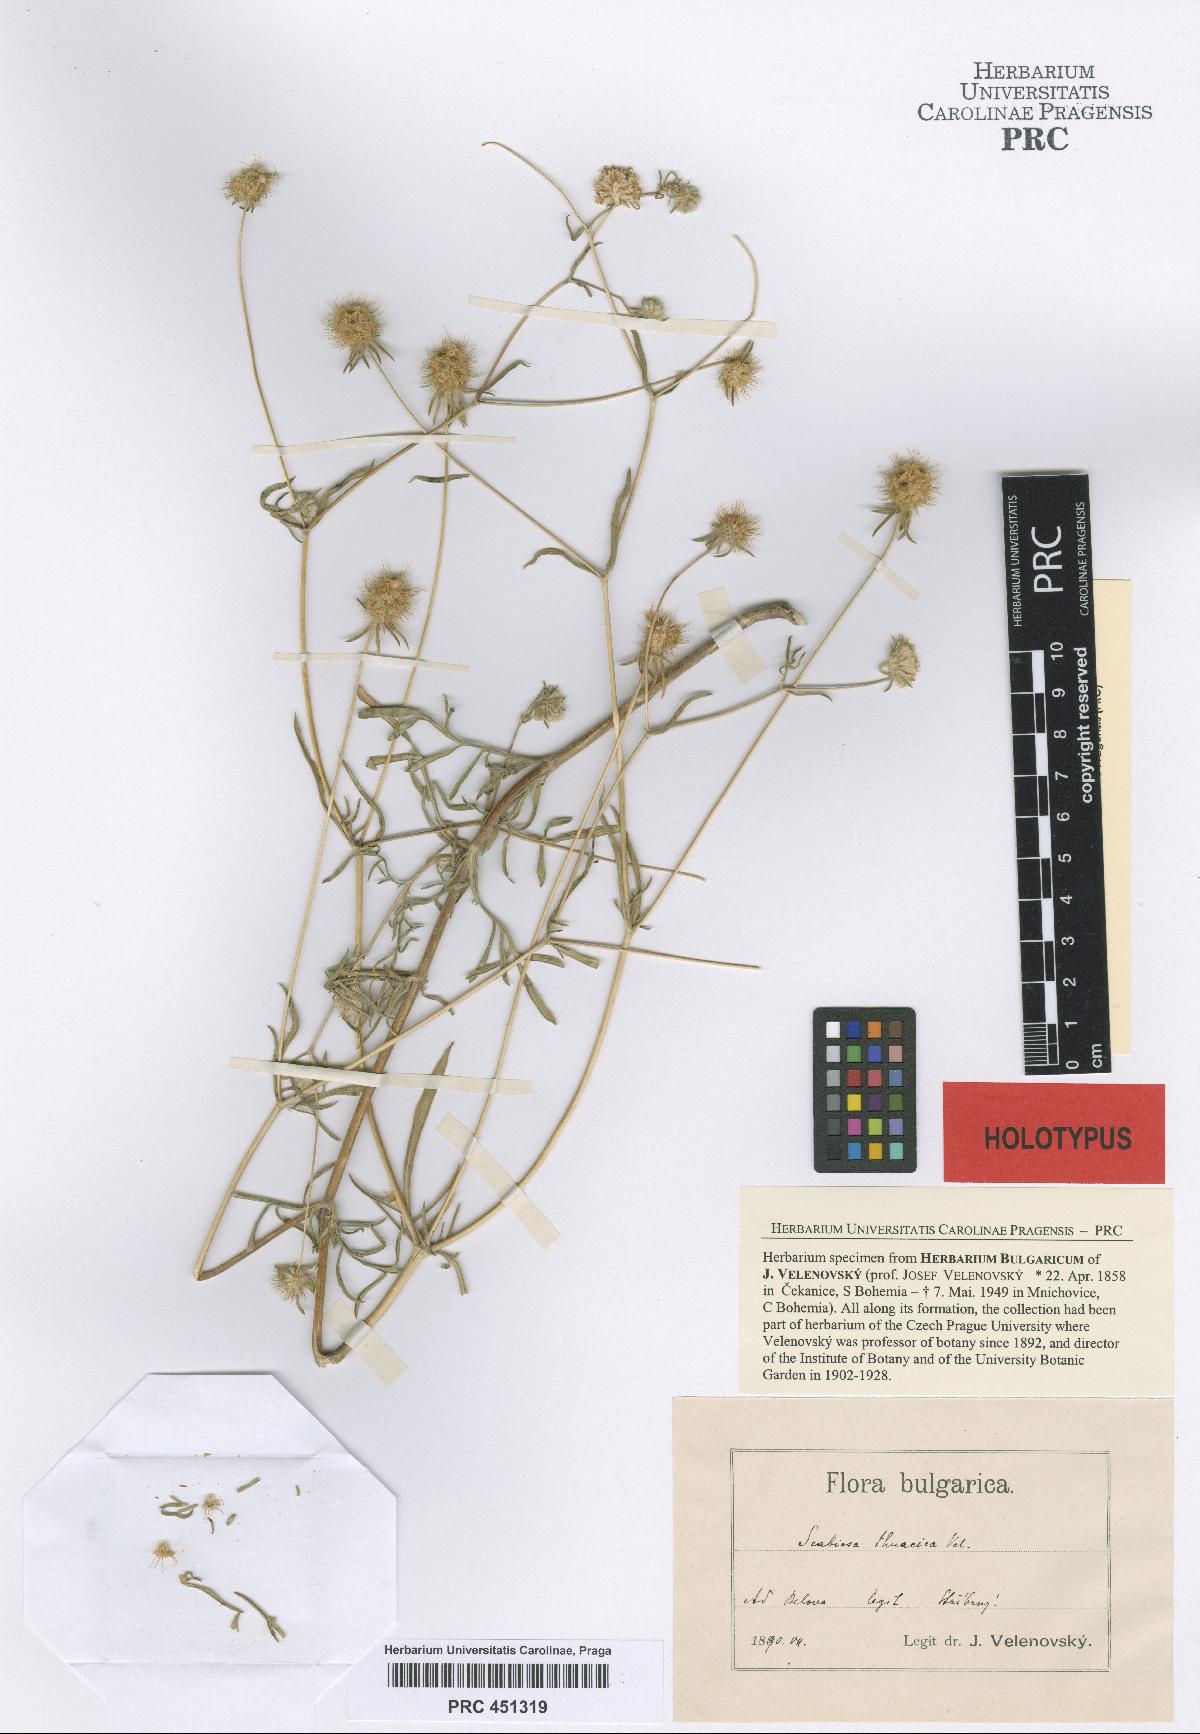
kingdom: Plantae
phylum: Tracheophyta
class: Magnoliopsida
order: Dipsacales
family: Caprifoliaceae
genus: Lomelosia
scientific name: Lomelosia argentea
